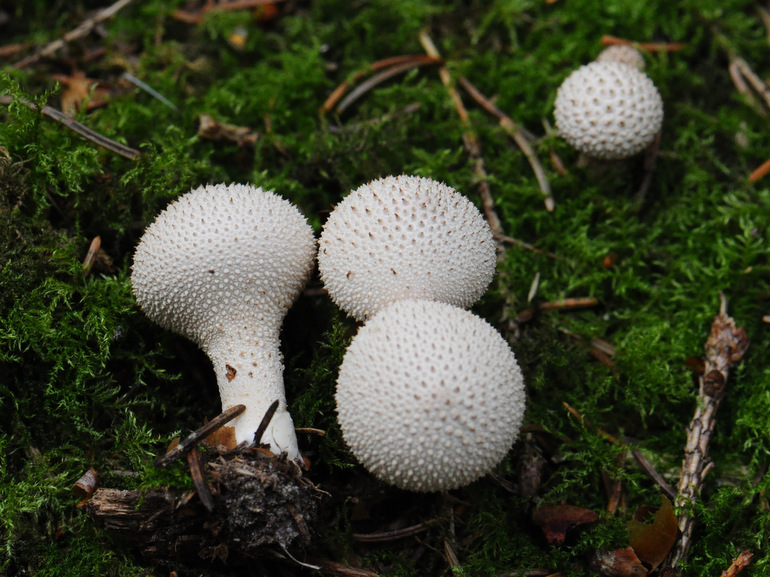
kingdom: Fungi
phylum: Basidiomycota
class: Agaricomycetes
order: Agaricales
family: Lycoperdaceae
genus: Lycoperdon
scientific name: Lycoperdon perlatum
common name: krystal-støvbold
